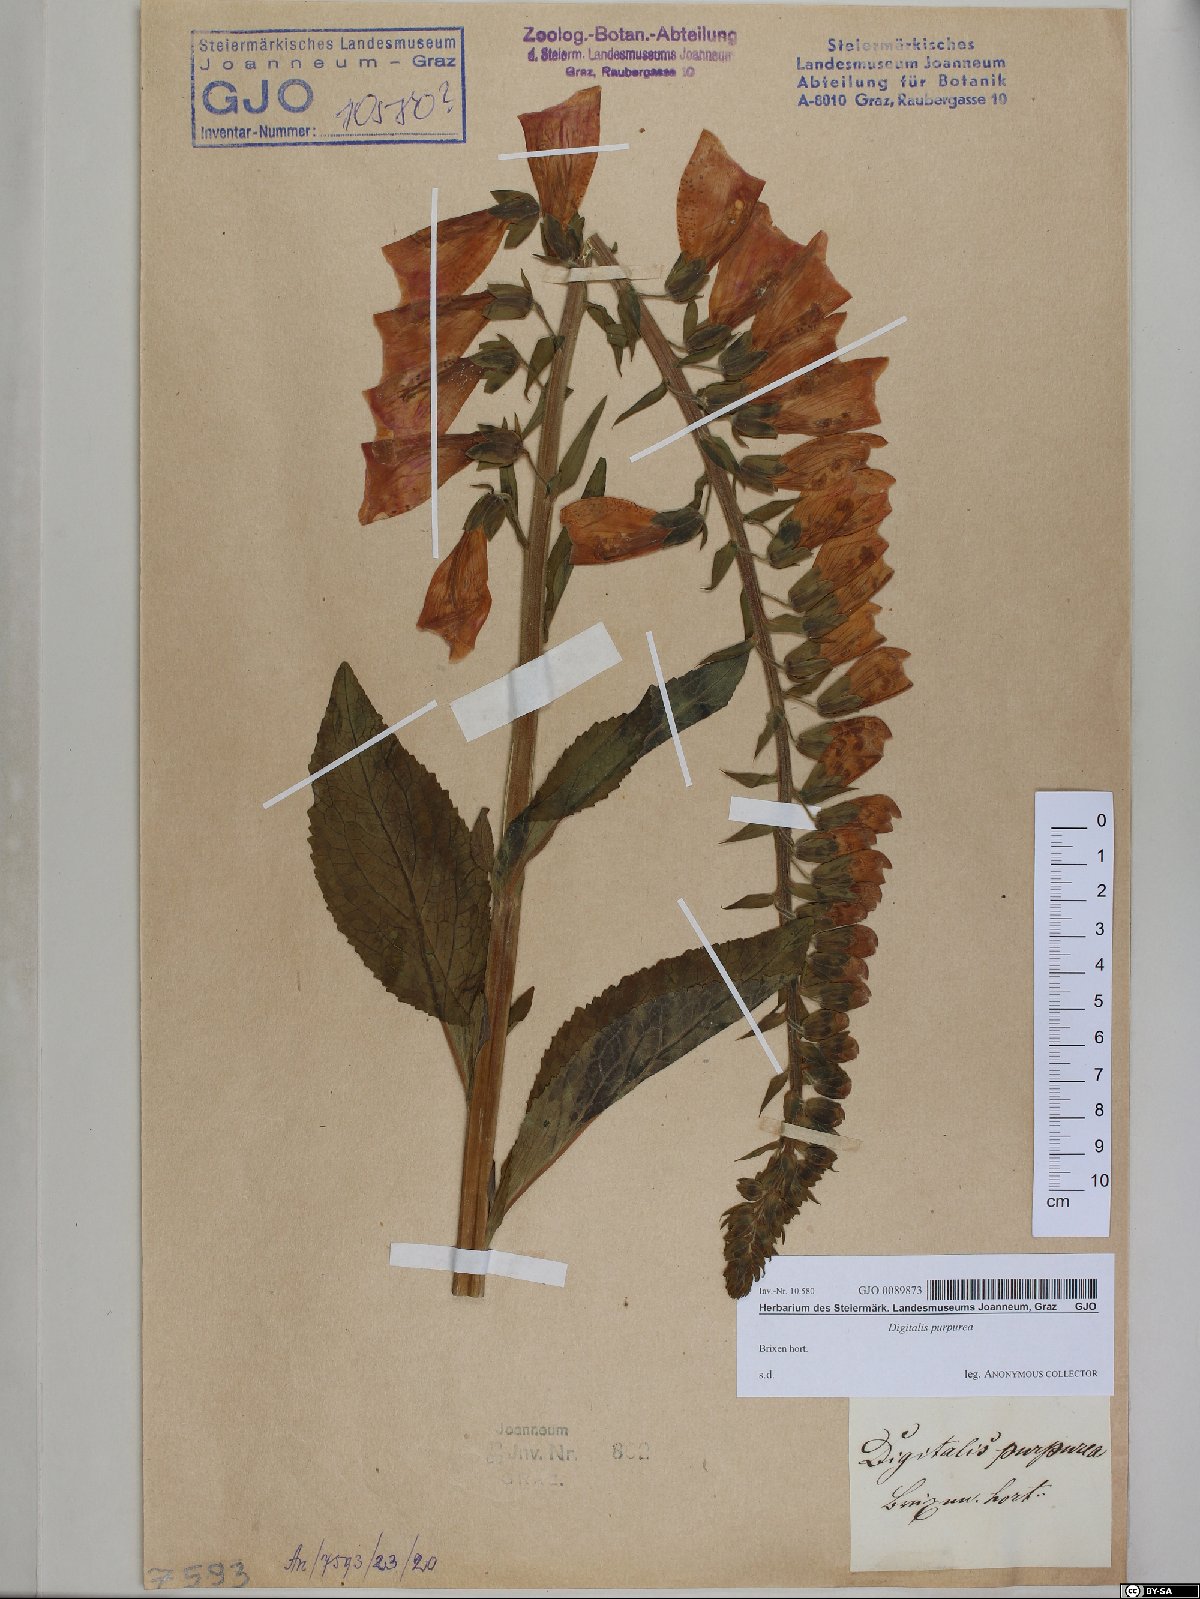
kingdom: Plantae
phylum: Tracheophyta
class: Magnoliopsida
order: Lamiales
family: Plantaginaceae
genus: Digitalis
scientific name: Digitalis purpurea
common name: Foxglove
